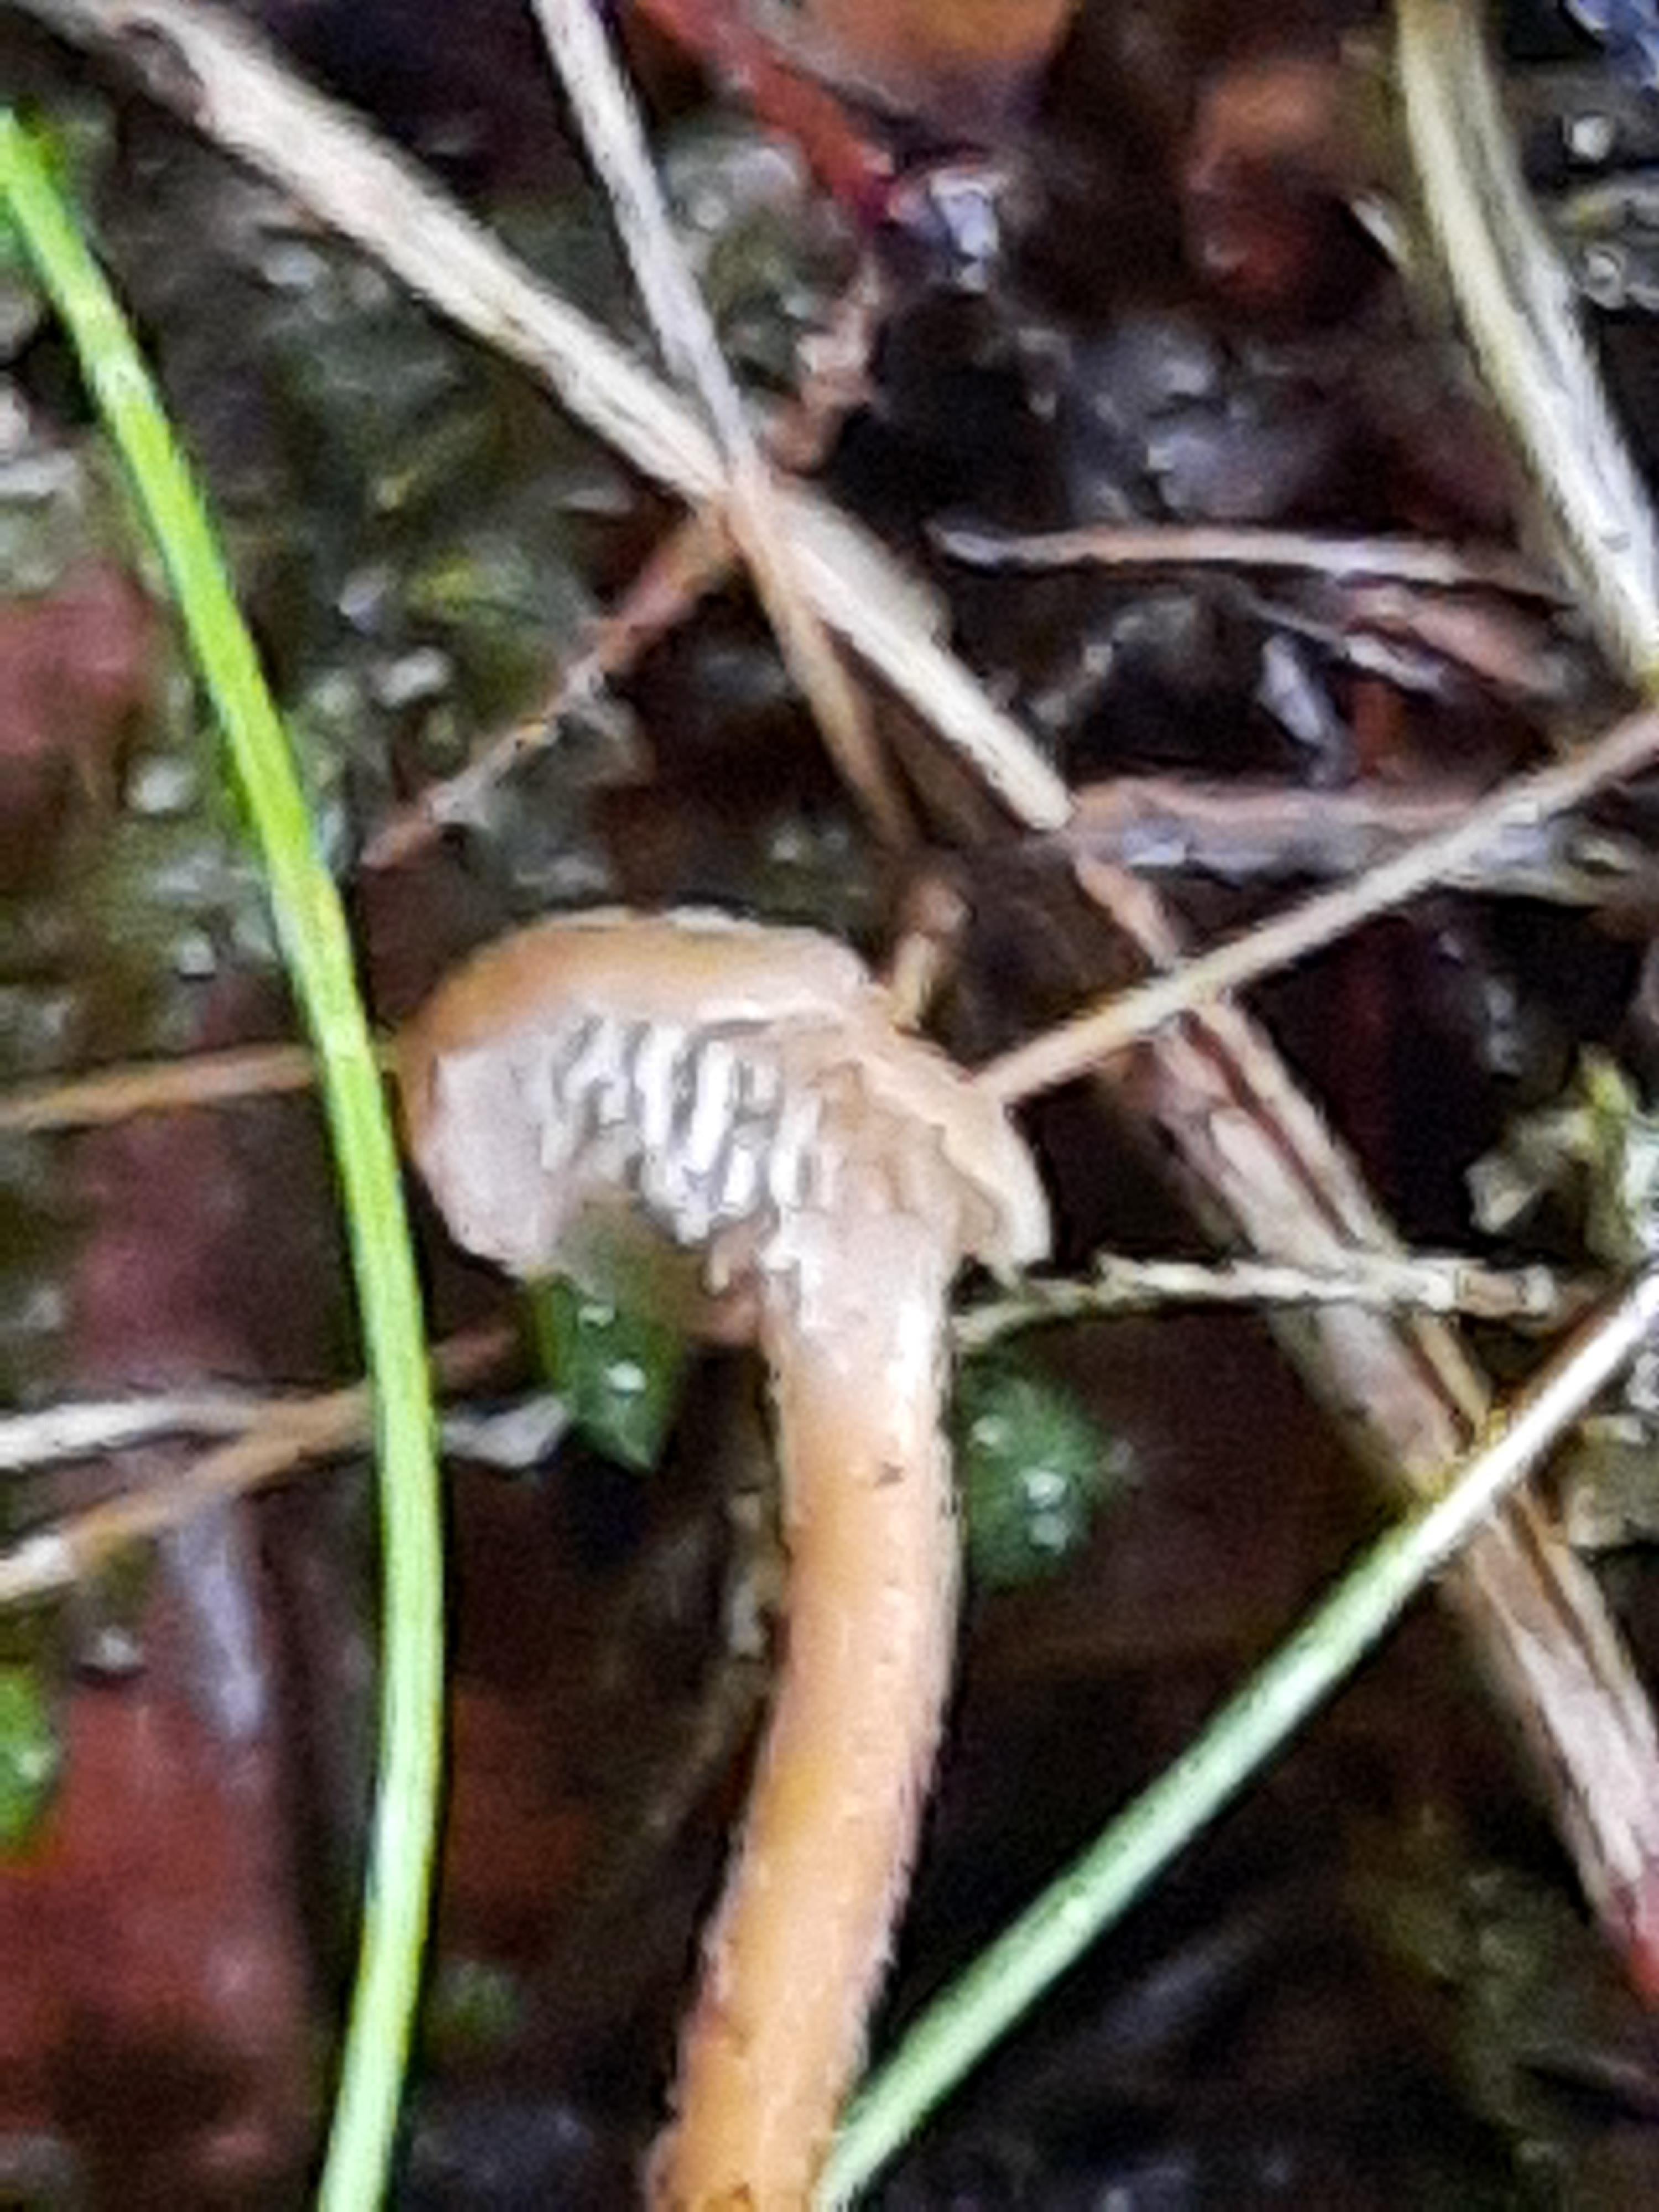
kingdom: Fungi
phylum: Basidiomycota
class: Agaricomycetes
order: Russulales
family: Auriscalpiaceae
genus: Auriscalpium
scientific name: Auriscalpium
